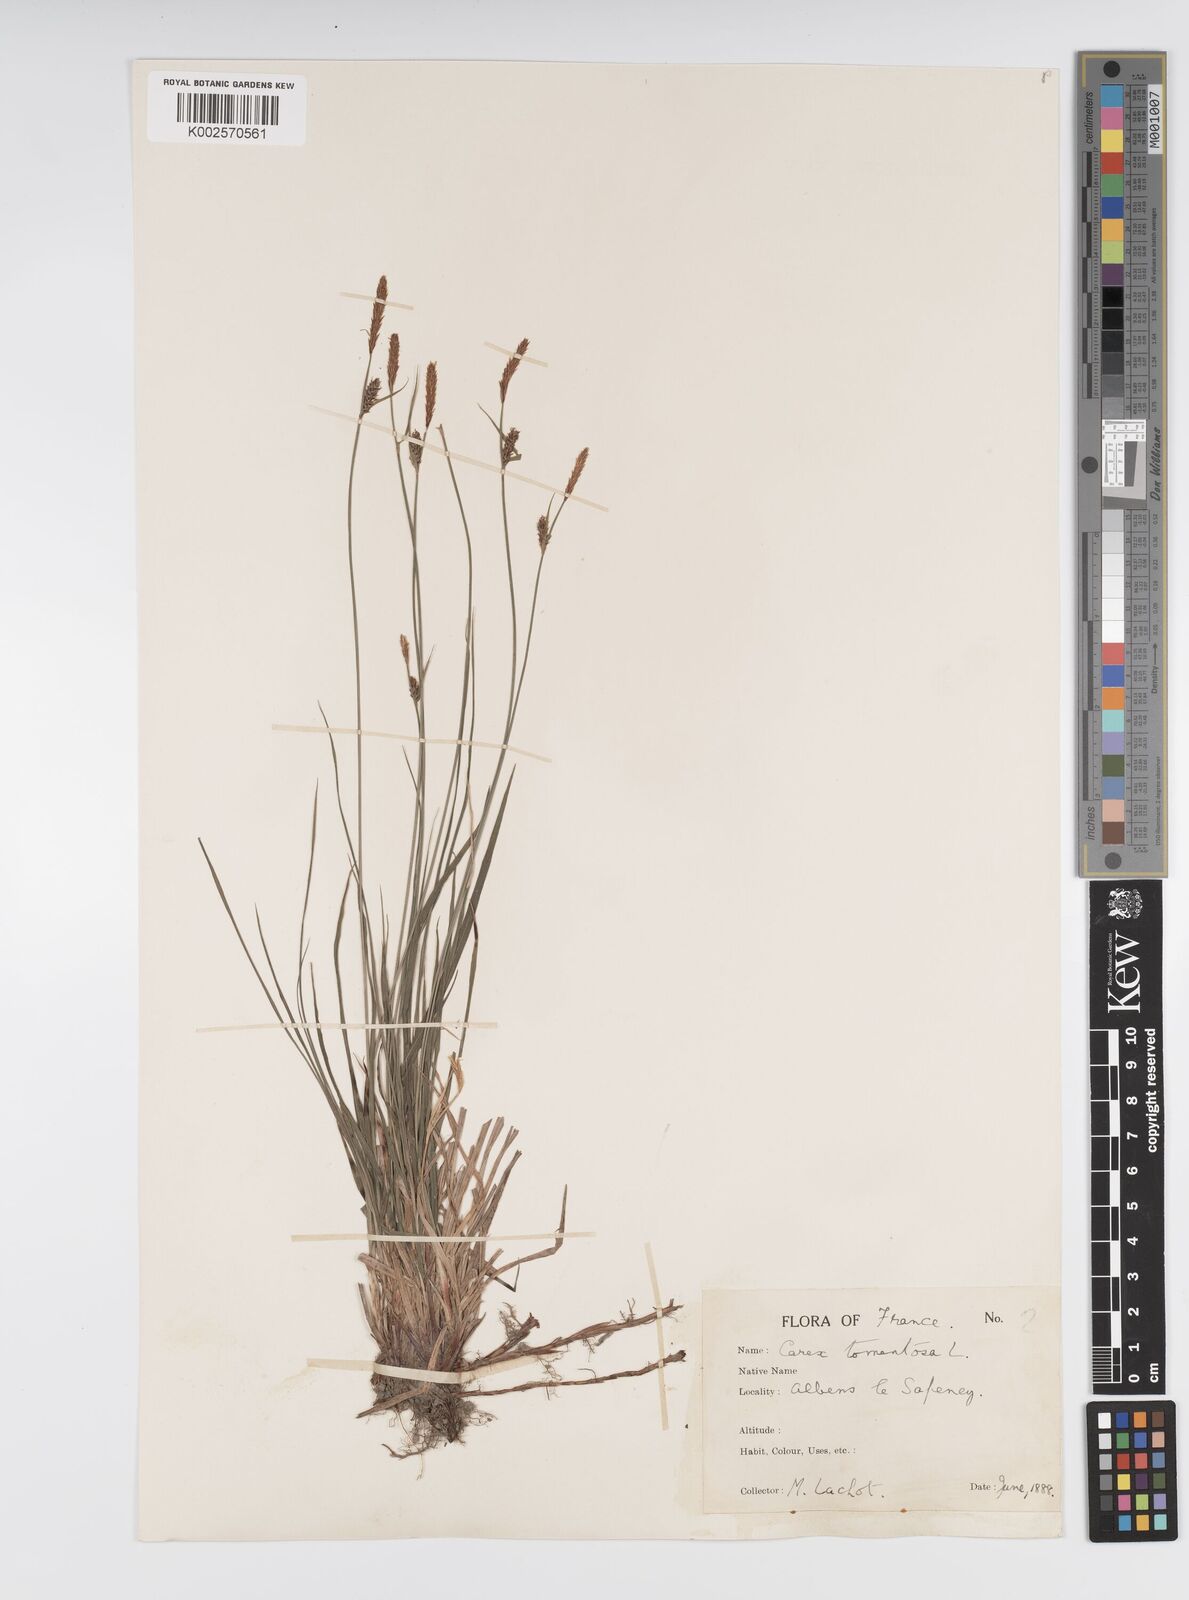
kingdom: Plantae
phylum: Tracheophyta
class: Liliopsida
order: Poales
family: Cyperaceae
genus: Carex
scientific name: Carex montana
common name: Soft-leaved sedge
